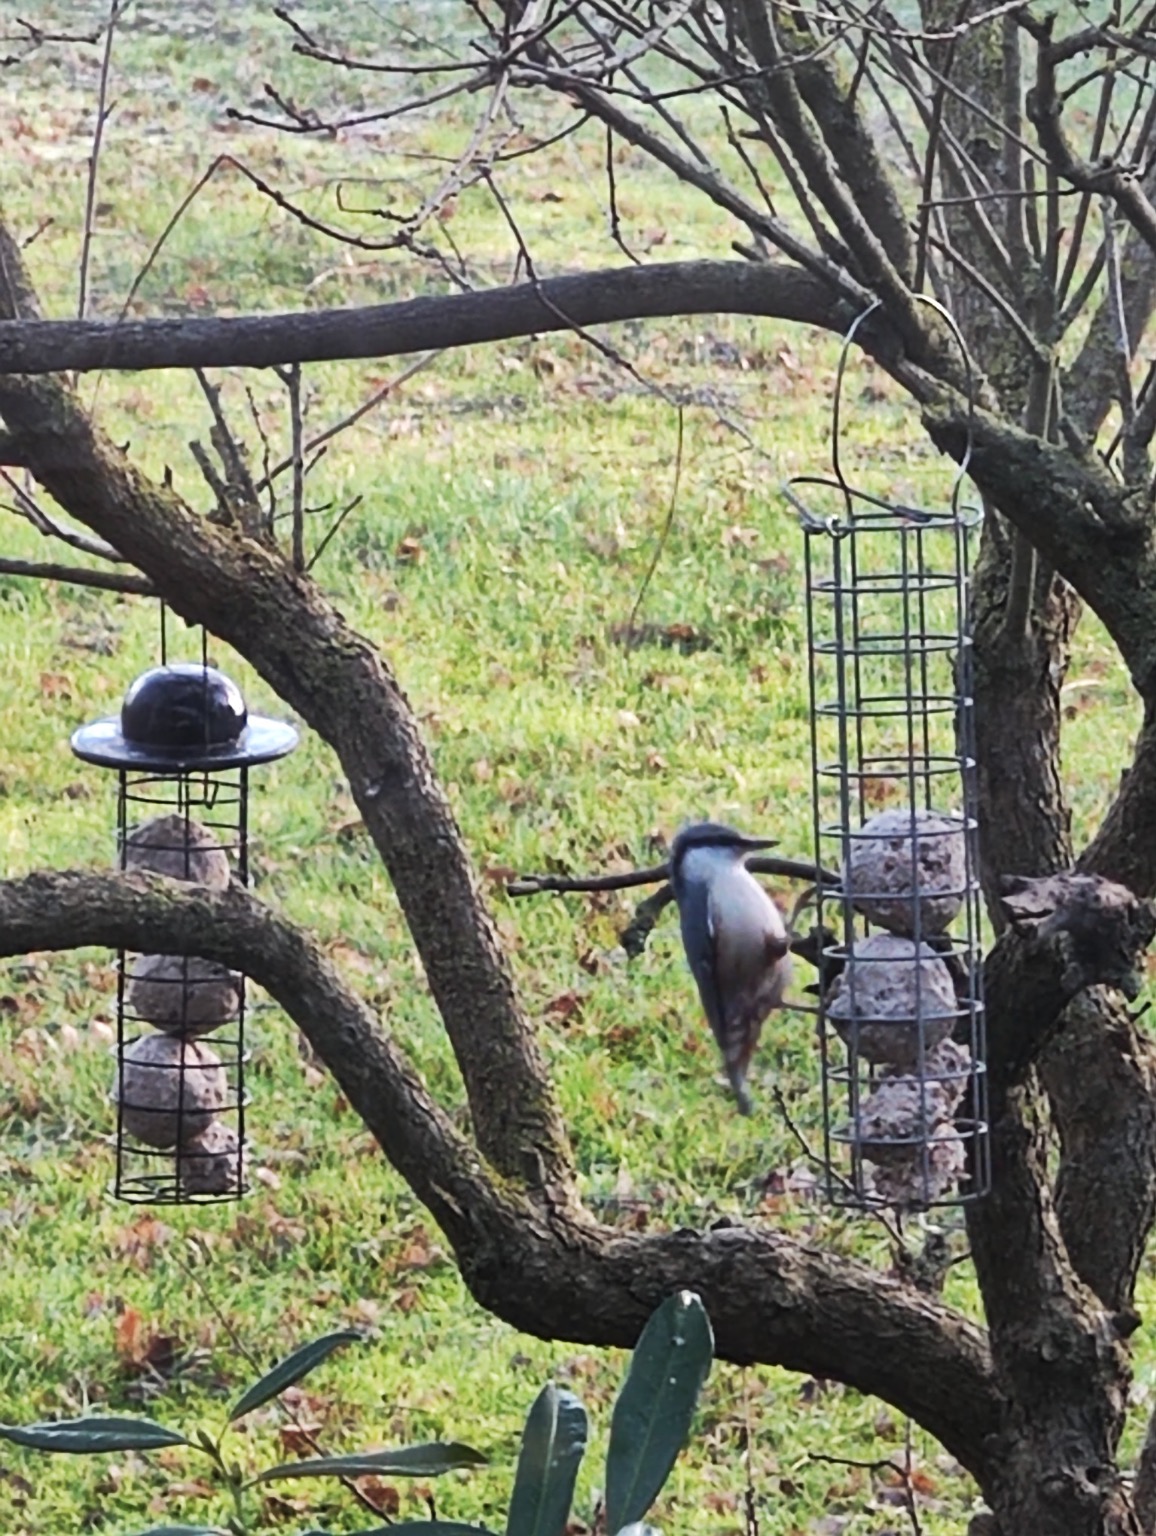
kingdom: Animalia
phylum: Chordata
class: Aves
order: Passeriformes
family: Sittidae
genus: Sitta
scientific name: Sitta europaea
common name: Spætmejse
